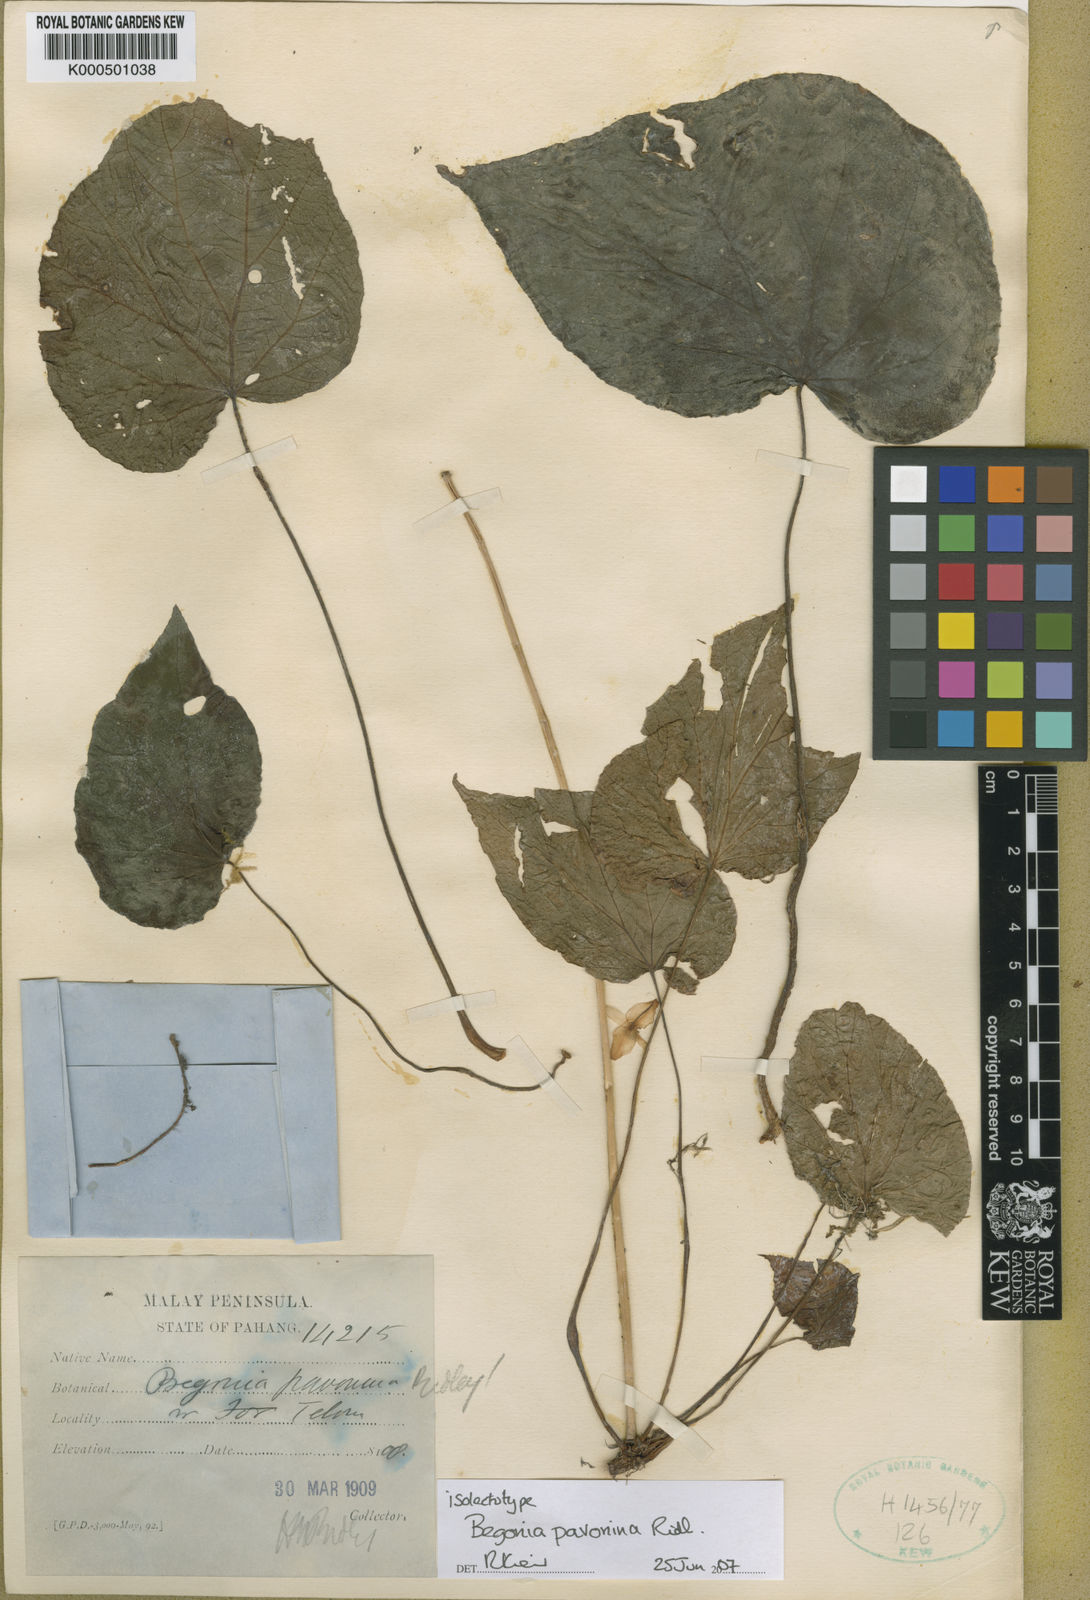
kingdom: Plantae
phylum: Tracheophyta
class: Magnoliopsida
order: Cucurbitales
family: Begoniaceae
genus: Begonia
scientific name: Begonia pavonina
